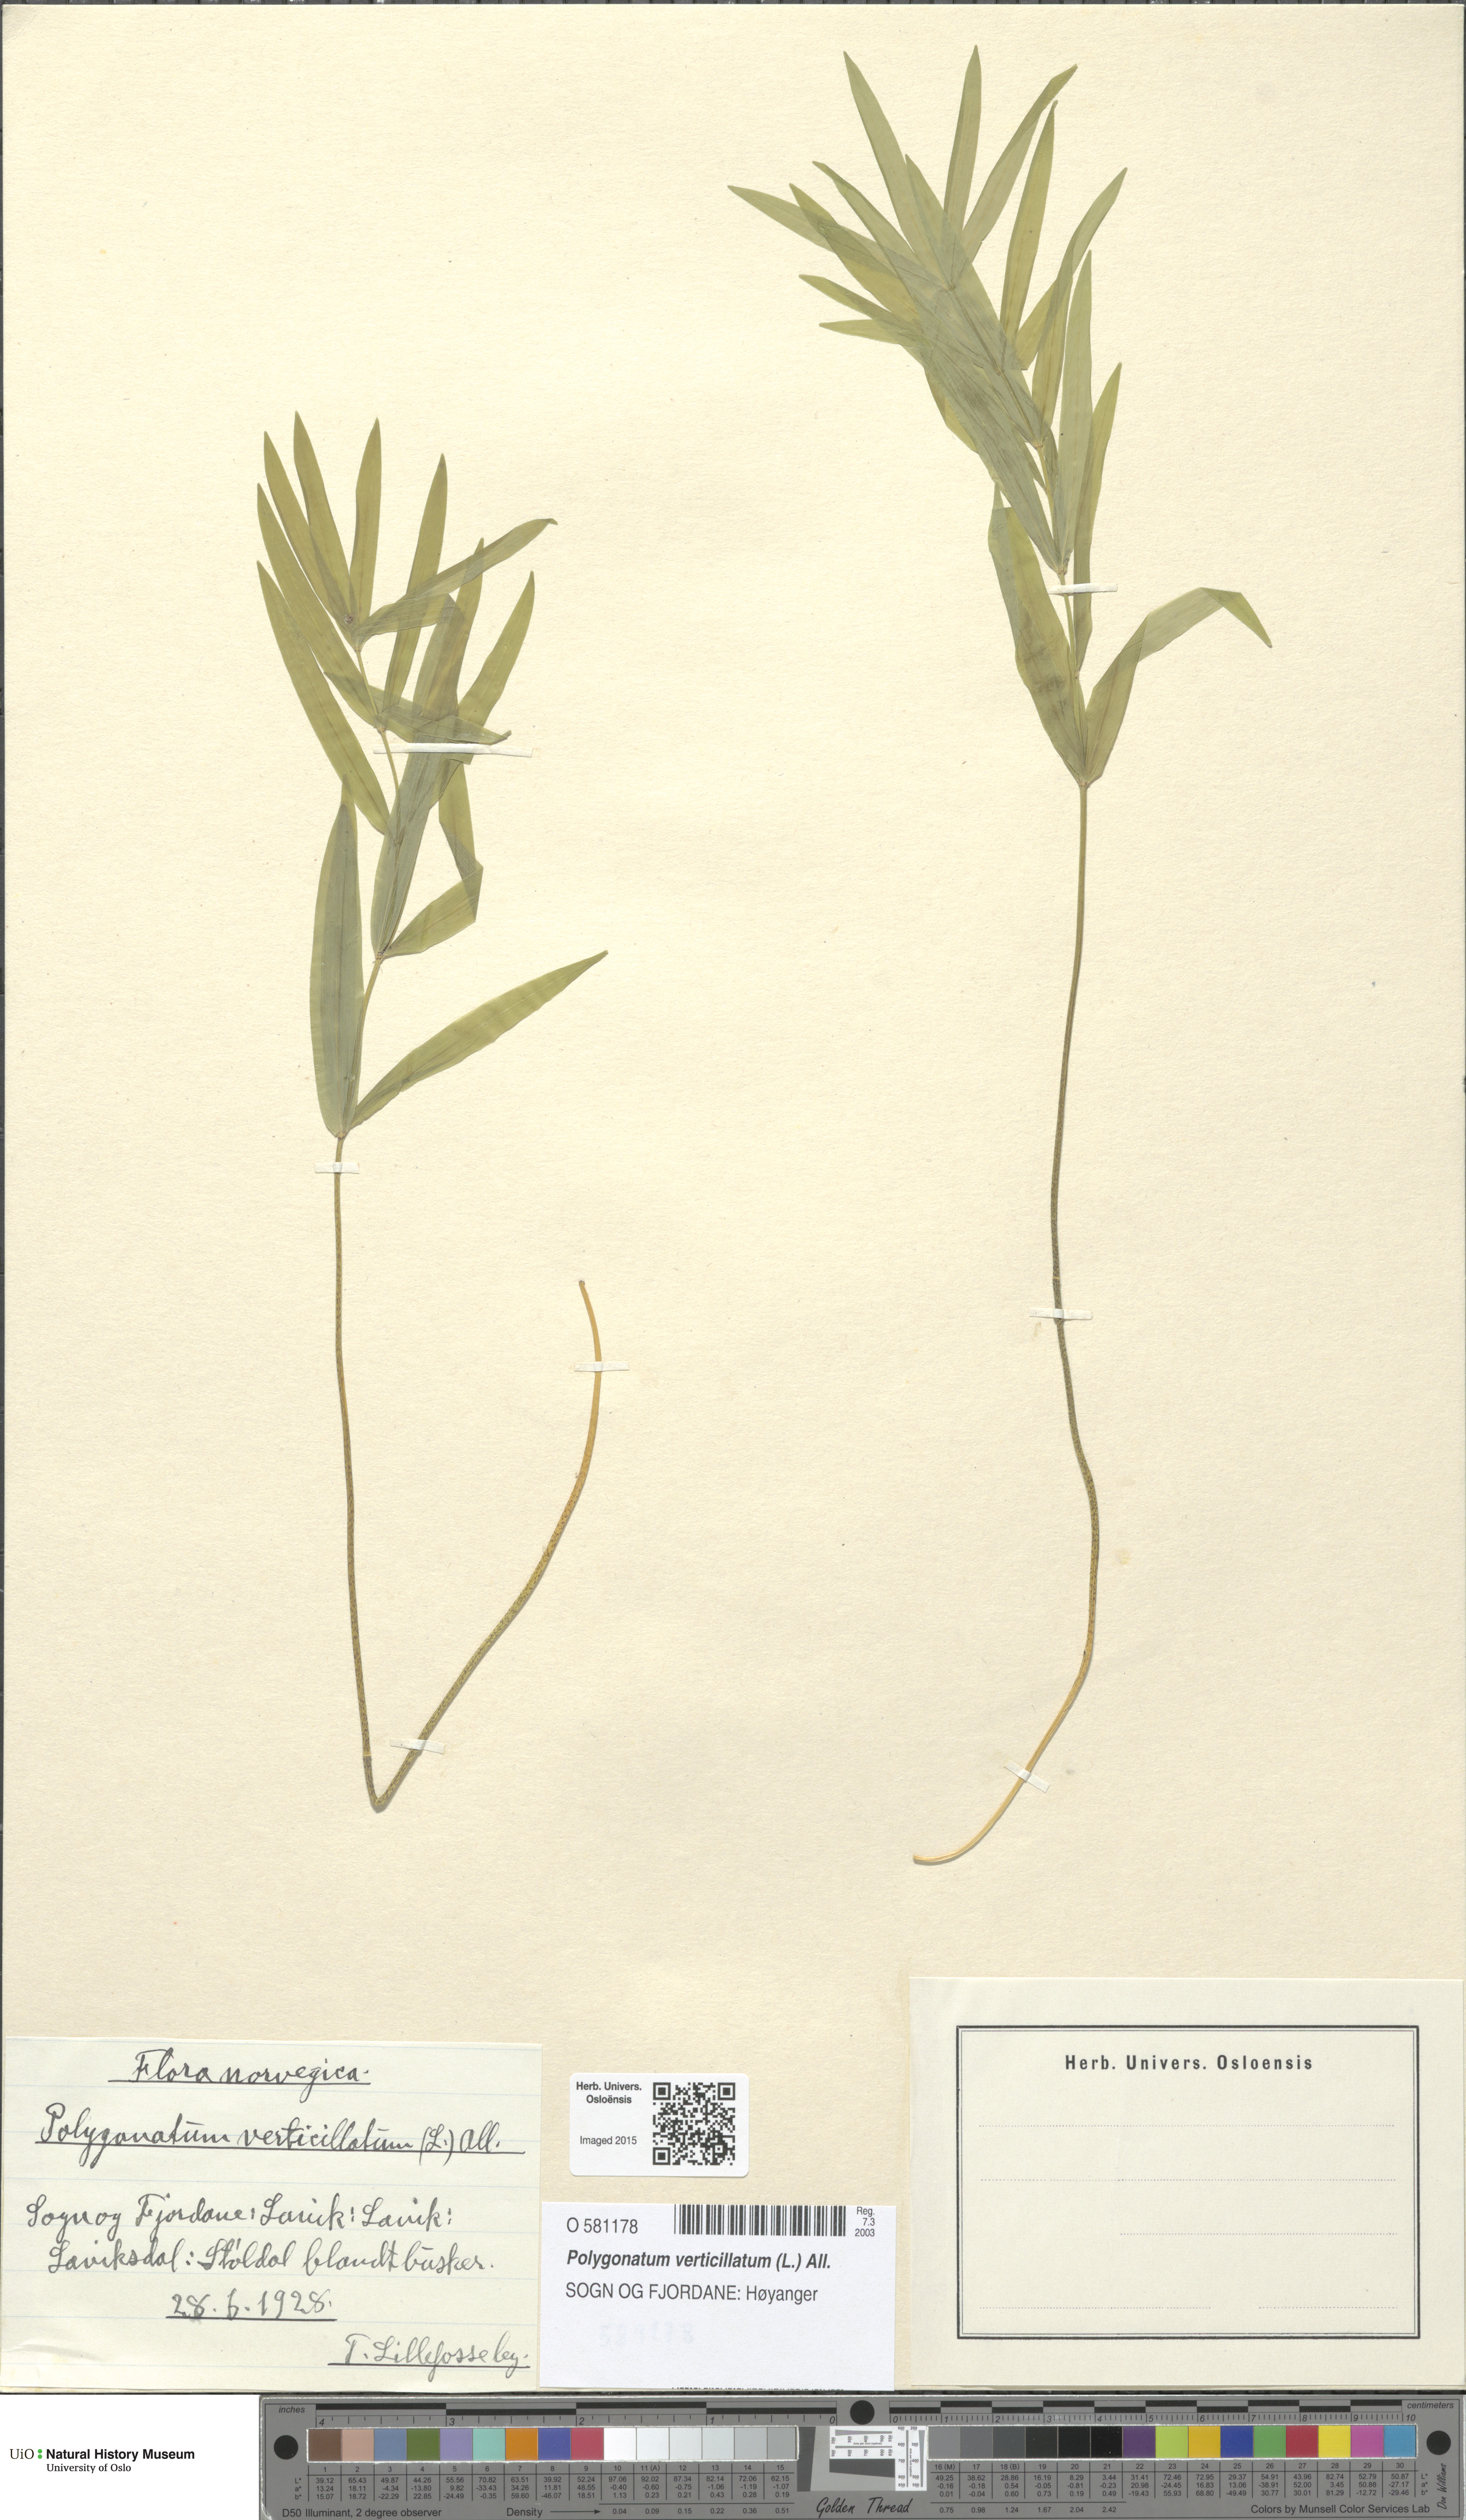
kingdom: Plantae
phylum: Tracheophyta
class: Liliopsida
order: Asparagales
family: Asparagaceae
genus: Polygonatum
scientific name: Polygonatum verticillatum
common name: Whorled solomon's-seal
